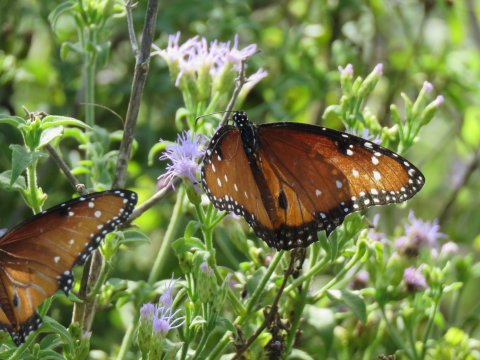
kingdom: Animalia
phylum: Arthropoda
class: Insecta
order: Lepidoptera
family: Nymphalidae
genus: Danaus
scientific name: Danaus gilippus
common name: Queen
